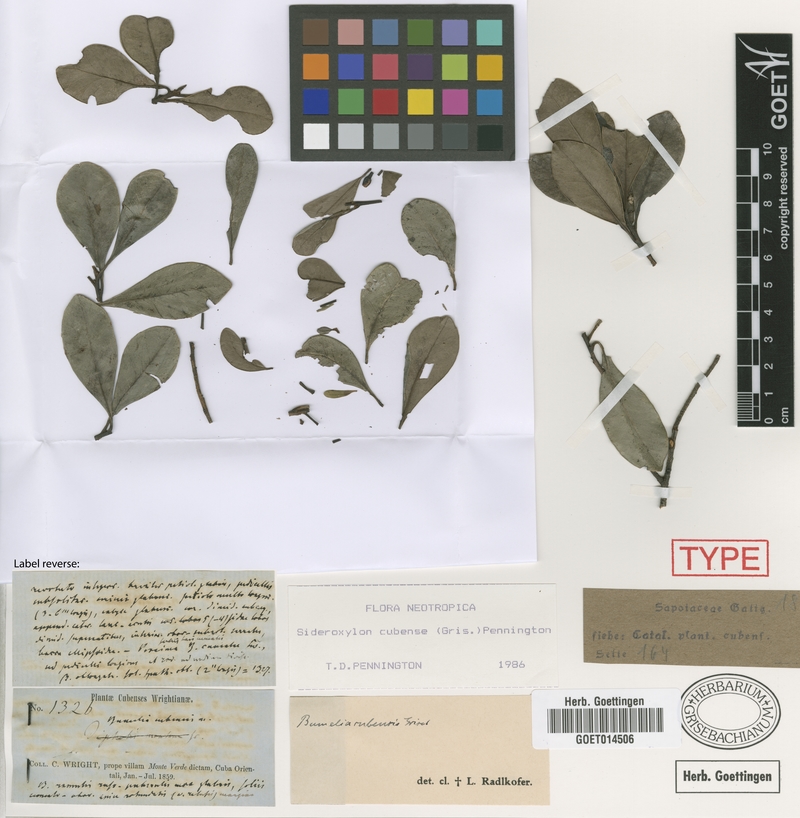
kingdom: Plantae
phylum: Tracheophyta
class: Magnoliopsida
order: Ericales
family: Sapotaceae
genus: Sideroxylon
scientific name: Sideroxylon cubense
